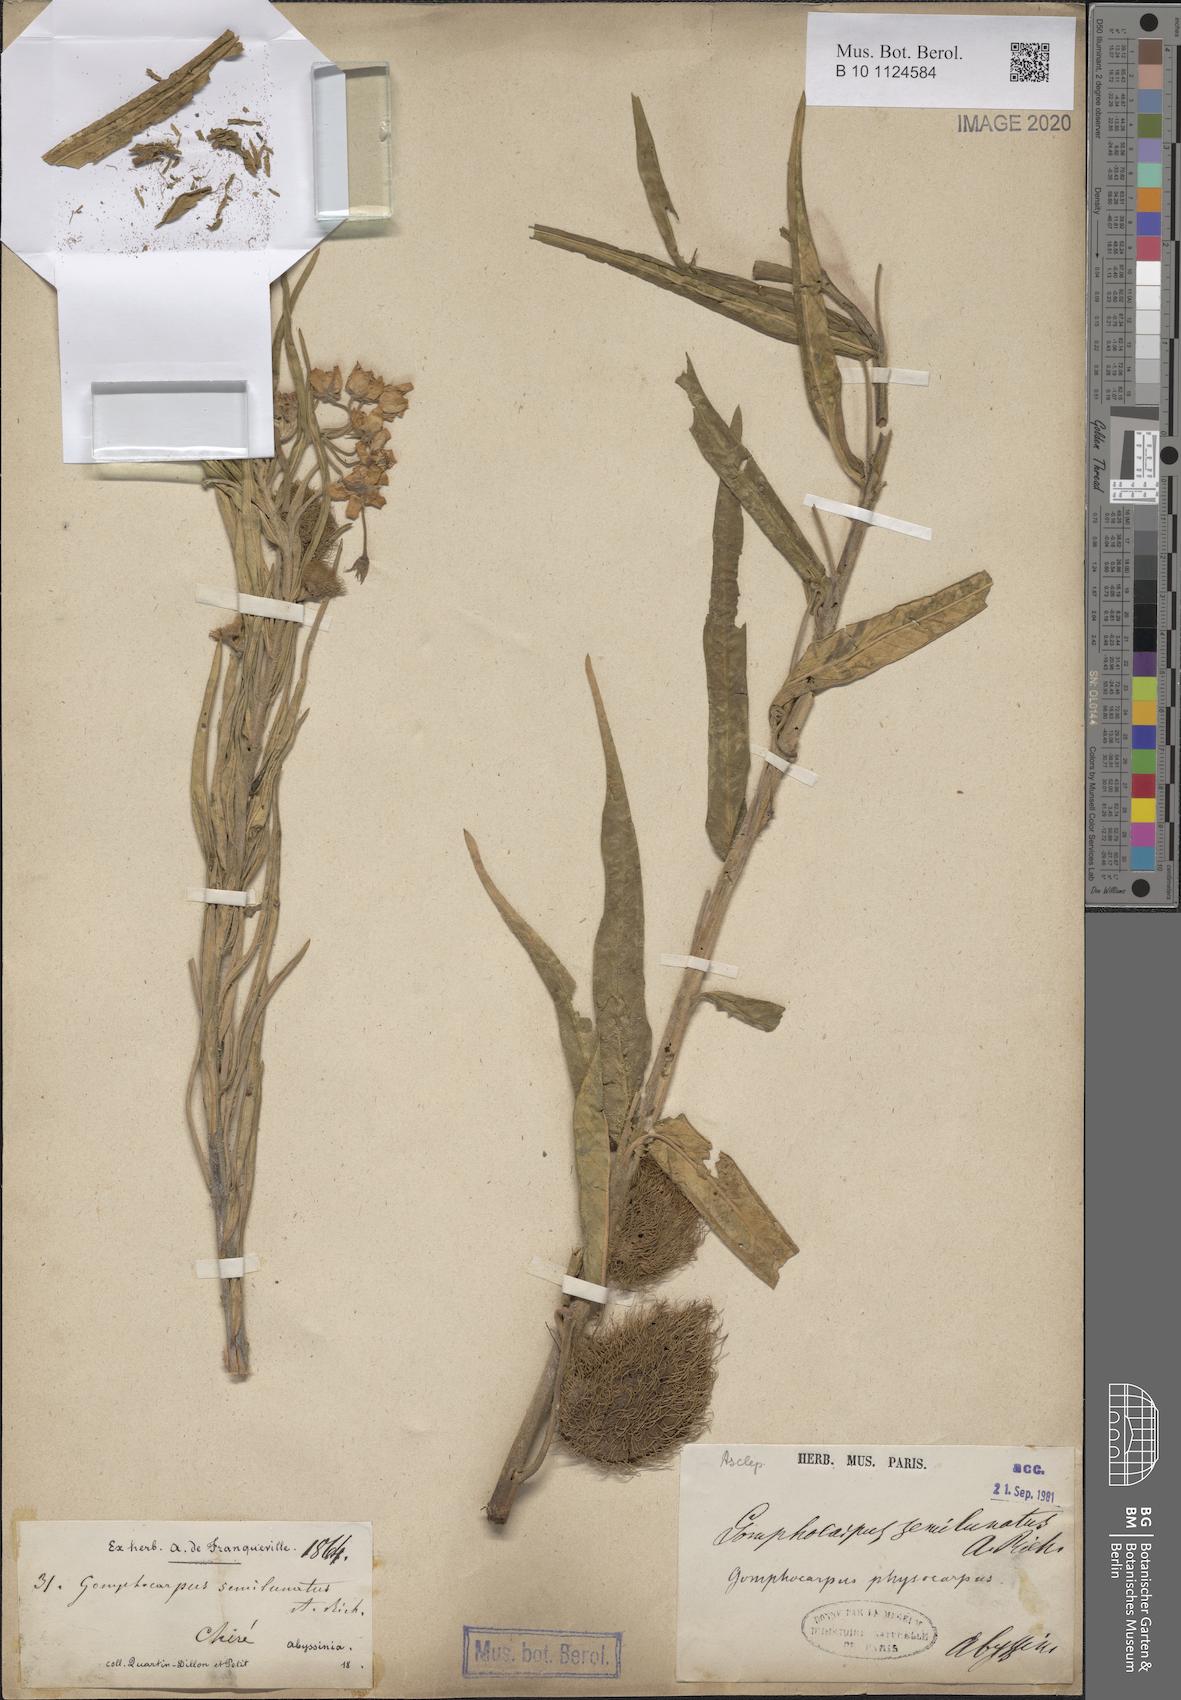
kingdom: Plantae
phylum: Tracheophyta
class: Magnoliopsida
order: Gentianales
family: Apocynaceae
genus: Gomphocarpus
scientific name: Gomphocarpus semilunatus
